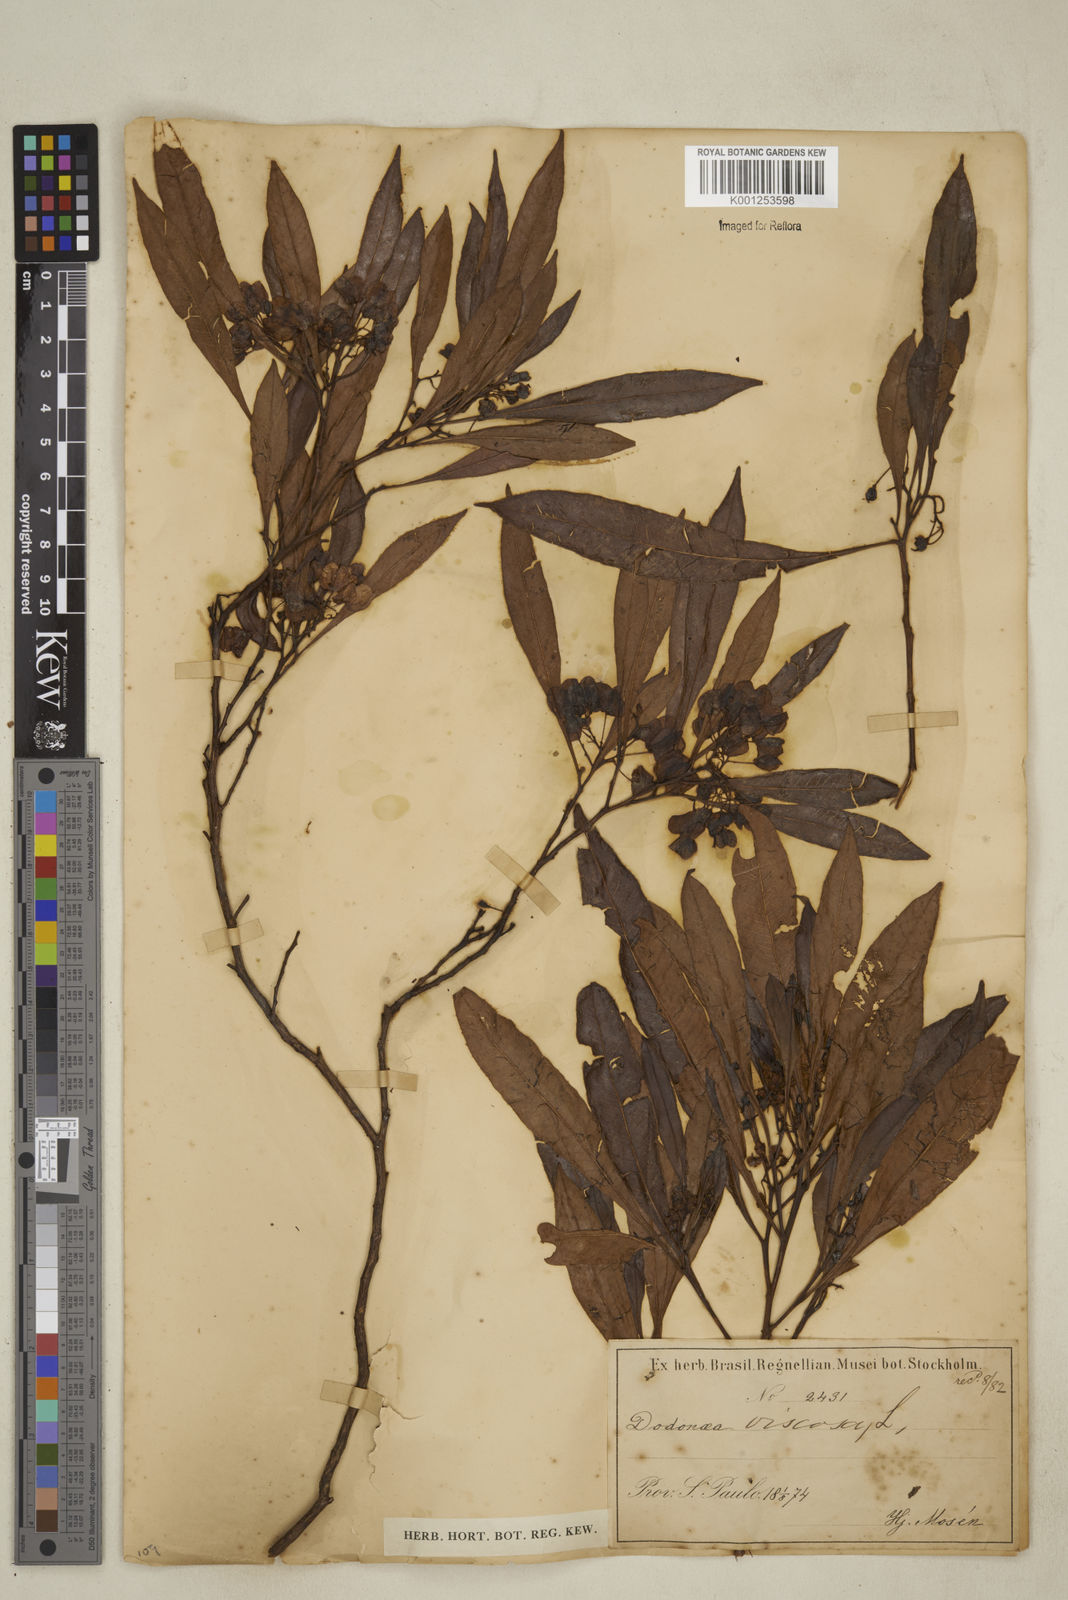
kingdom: Plantae
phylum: Tracheophyta
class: Magnoliopsida
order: Sapindales
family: Sapindaceae
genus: Dodonaea
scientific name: Dodonaea viscosa
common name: Hopbush
